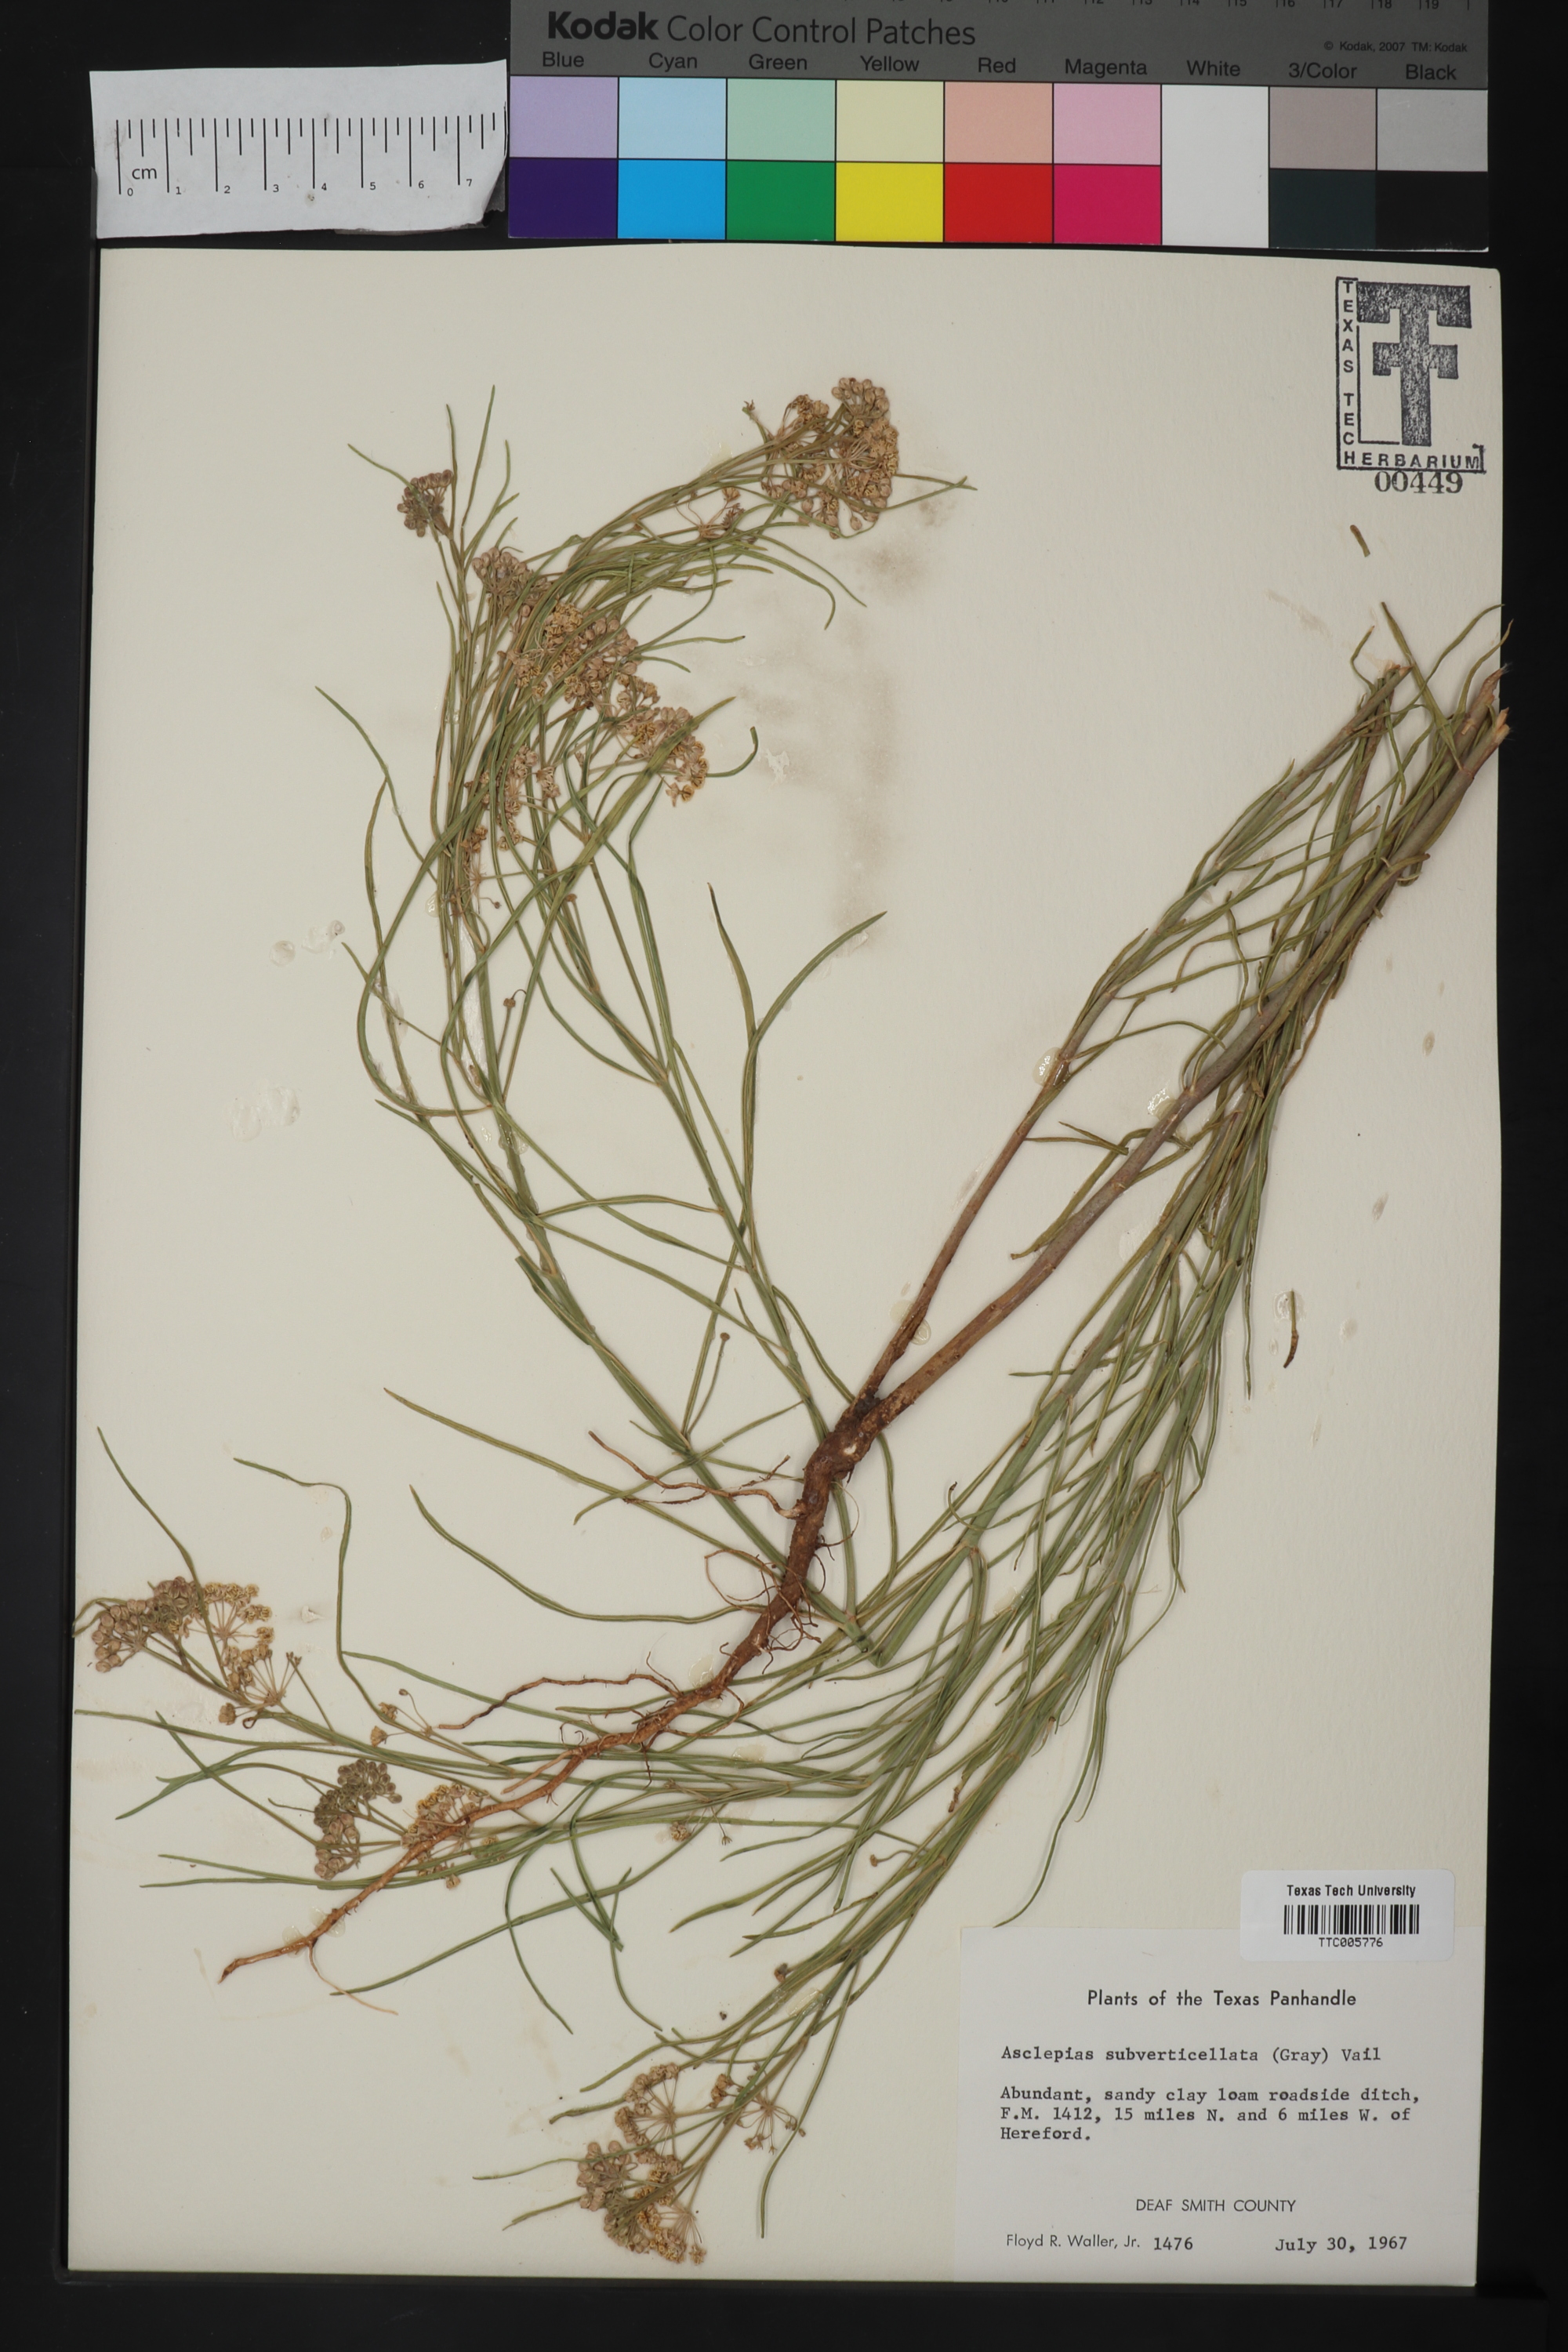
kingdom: Plantae
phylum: Tracheophyta
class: Magnoliopsida
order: Gentianales
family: Apocynaceae
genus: Asclepias
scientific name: Asclepias subverticillata
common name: Horsetail milkweed
